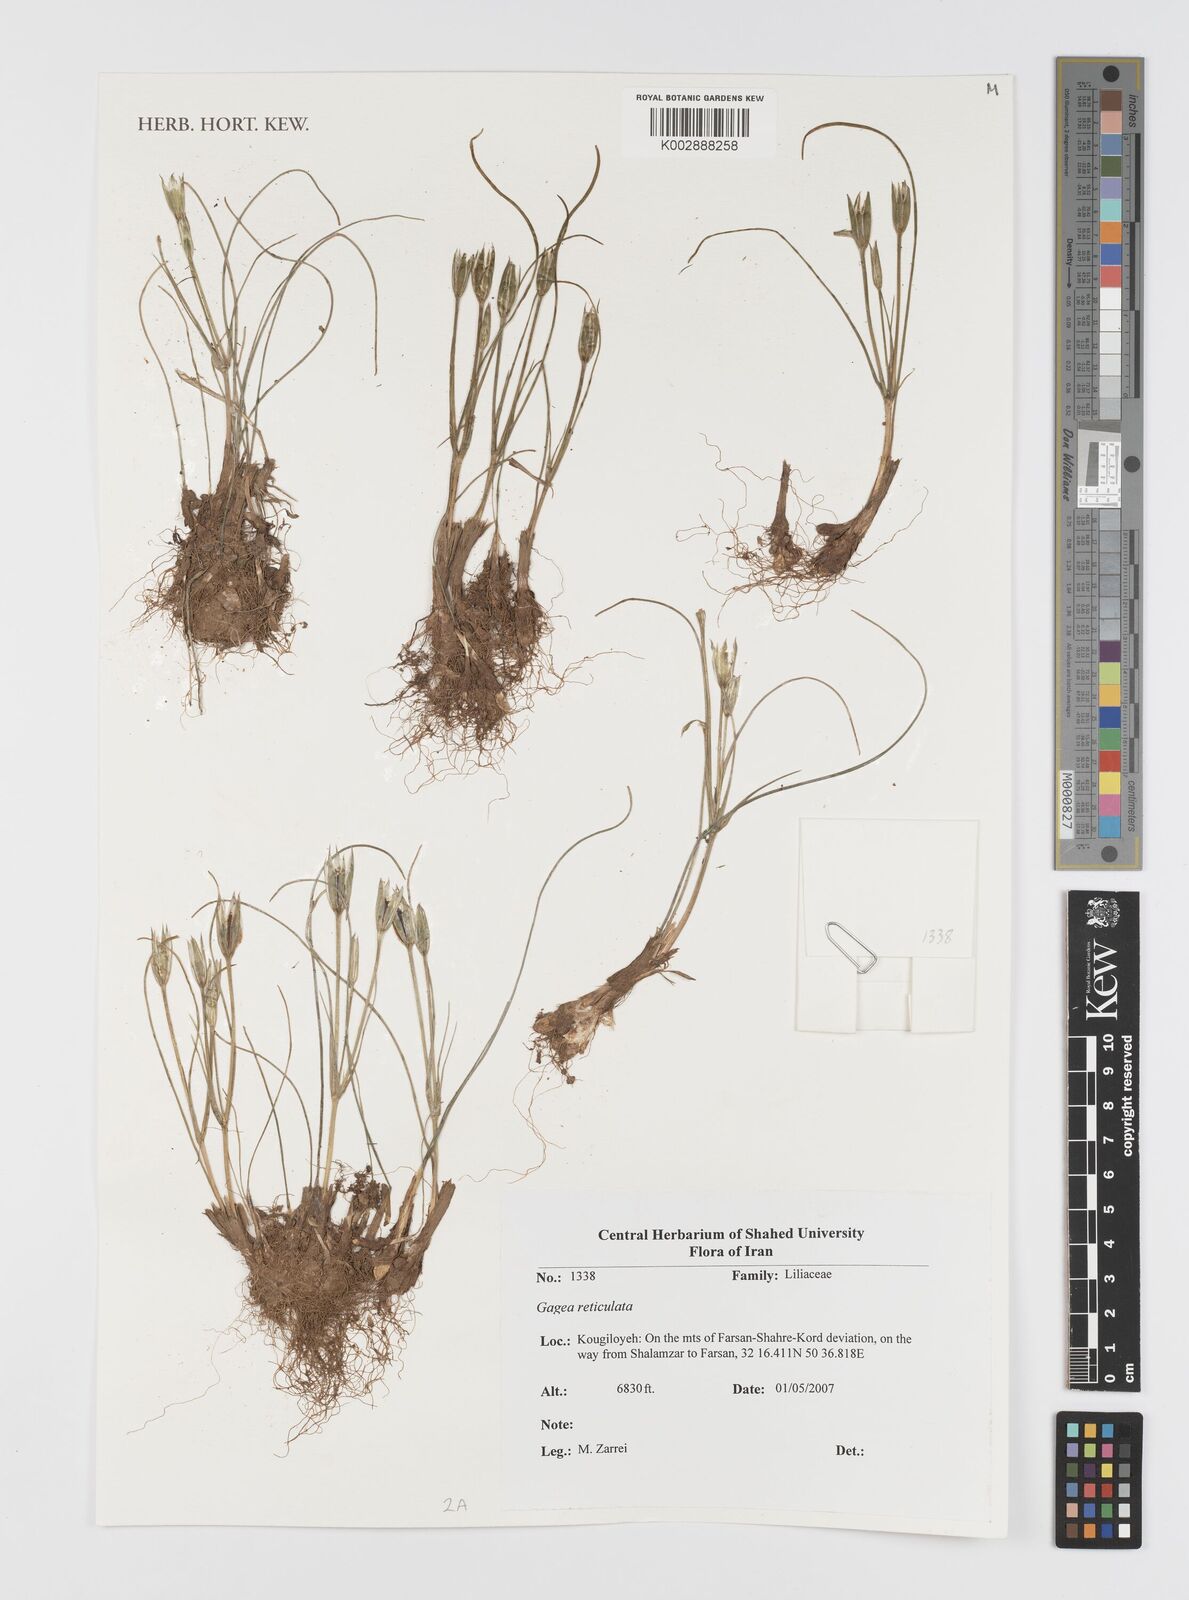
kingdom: Plantae
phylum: Tracheophyta
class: Liliopsida
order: Liliales
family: Liliaceae
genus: Gagea
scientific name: Gagea reticulata
